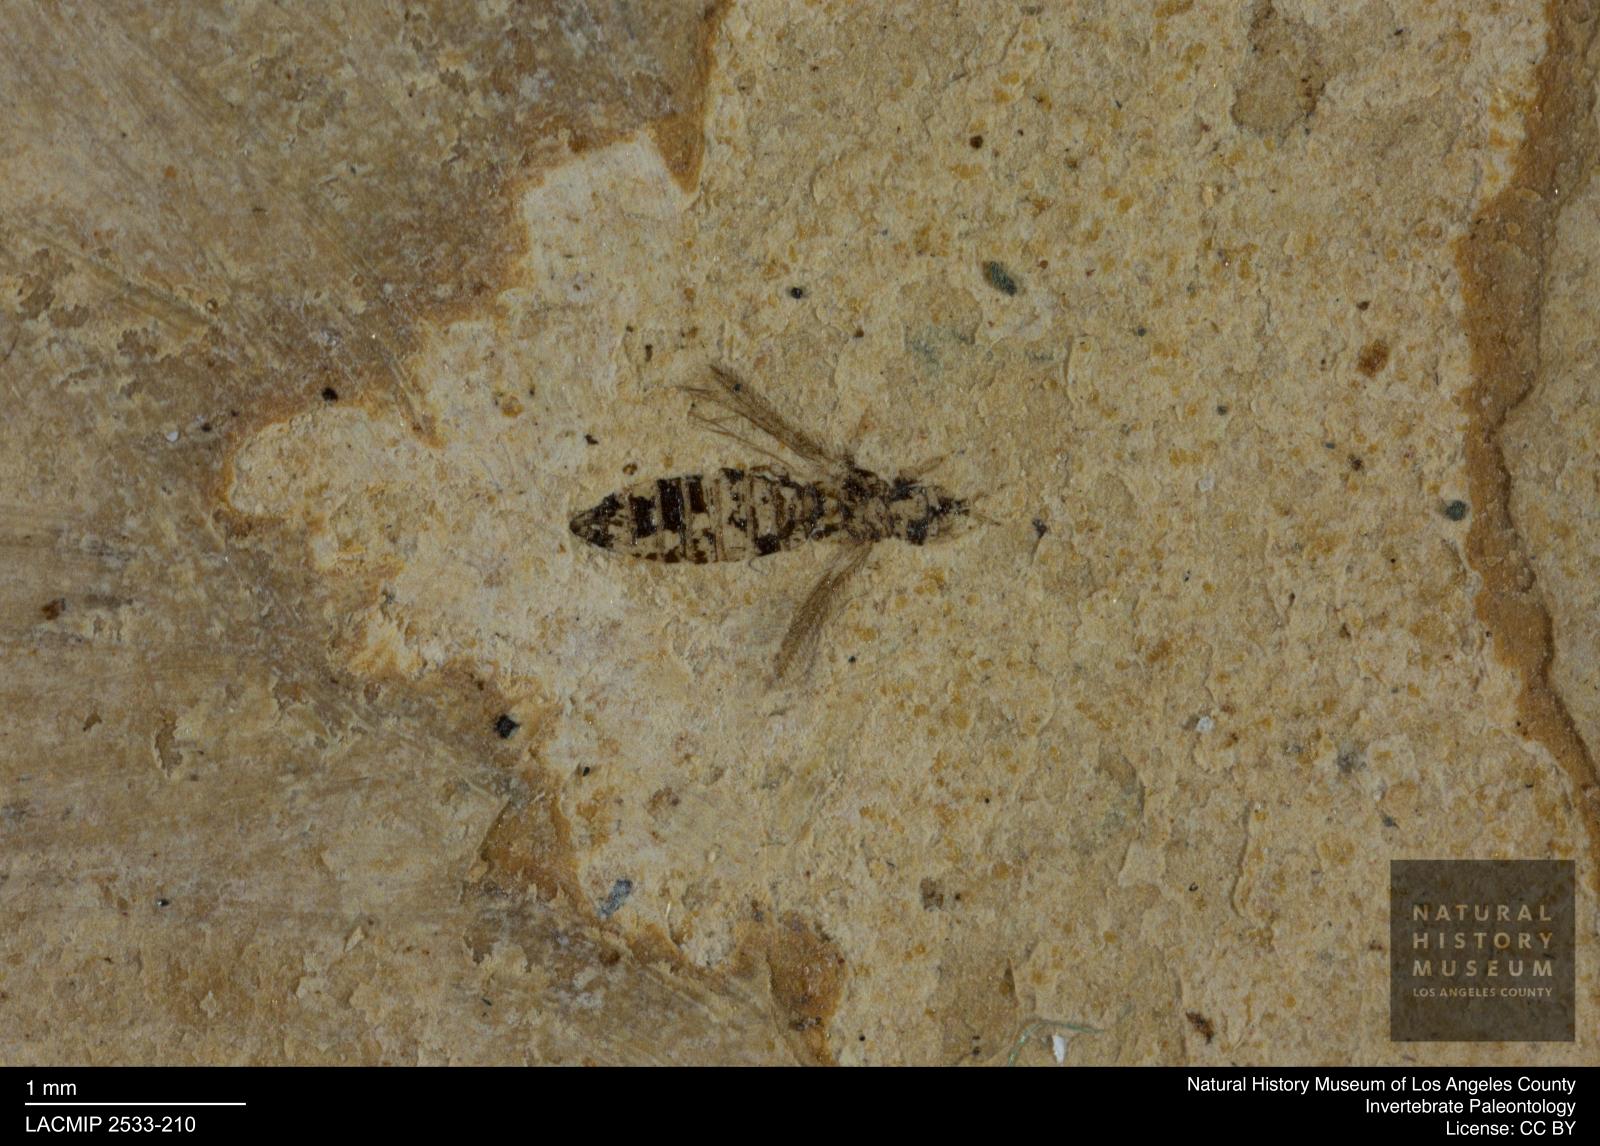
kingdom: Animalia
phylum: Arthropoda
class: Insecta
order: Thysanoptera
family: Thripidae
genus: Thrips
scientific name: Thrips
